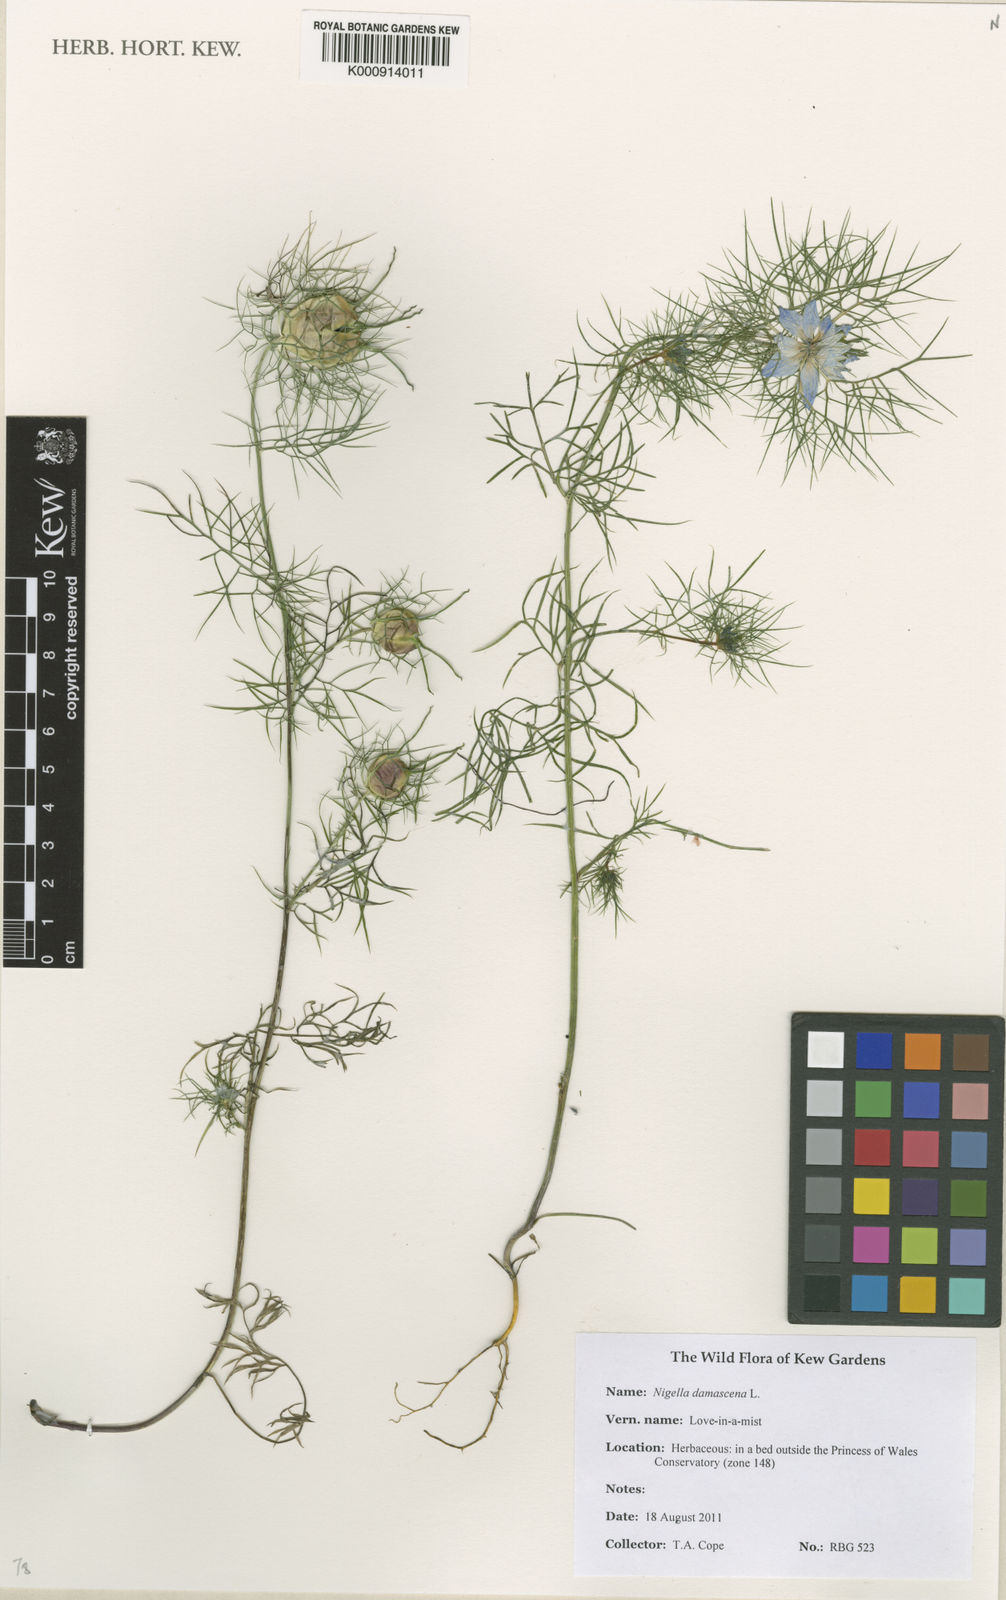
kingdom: Plantae
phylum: Tracheophyta
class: Magnoliopsida
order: Ranunculales
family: Ranunculaceae
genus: Nigella
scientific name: Nigella damascena
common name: Love-in-a-mist
